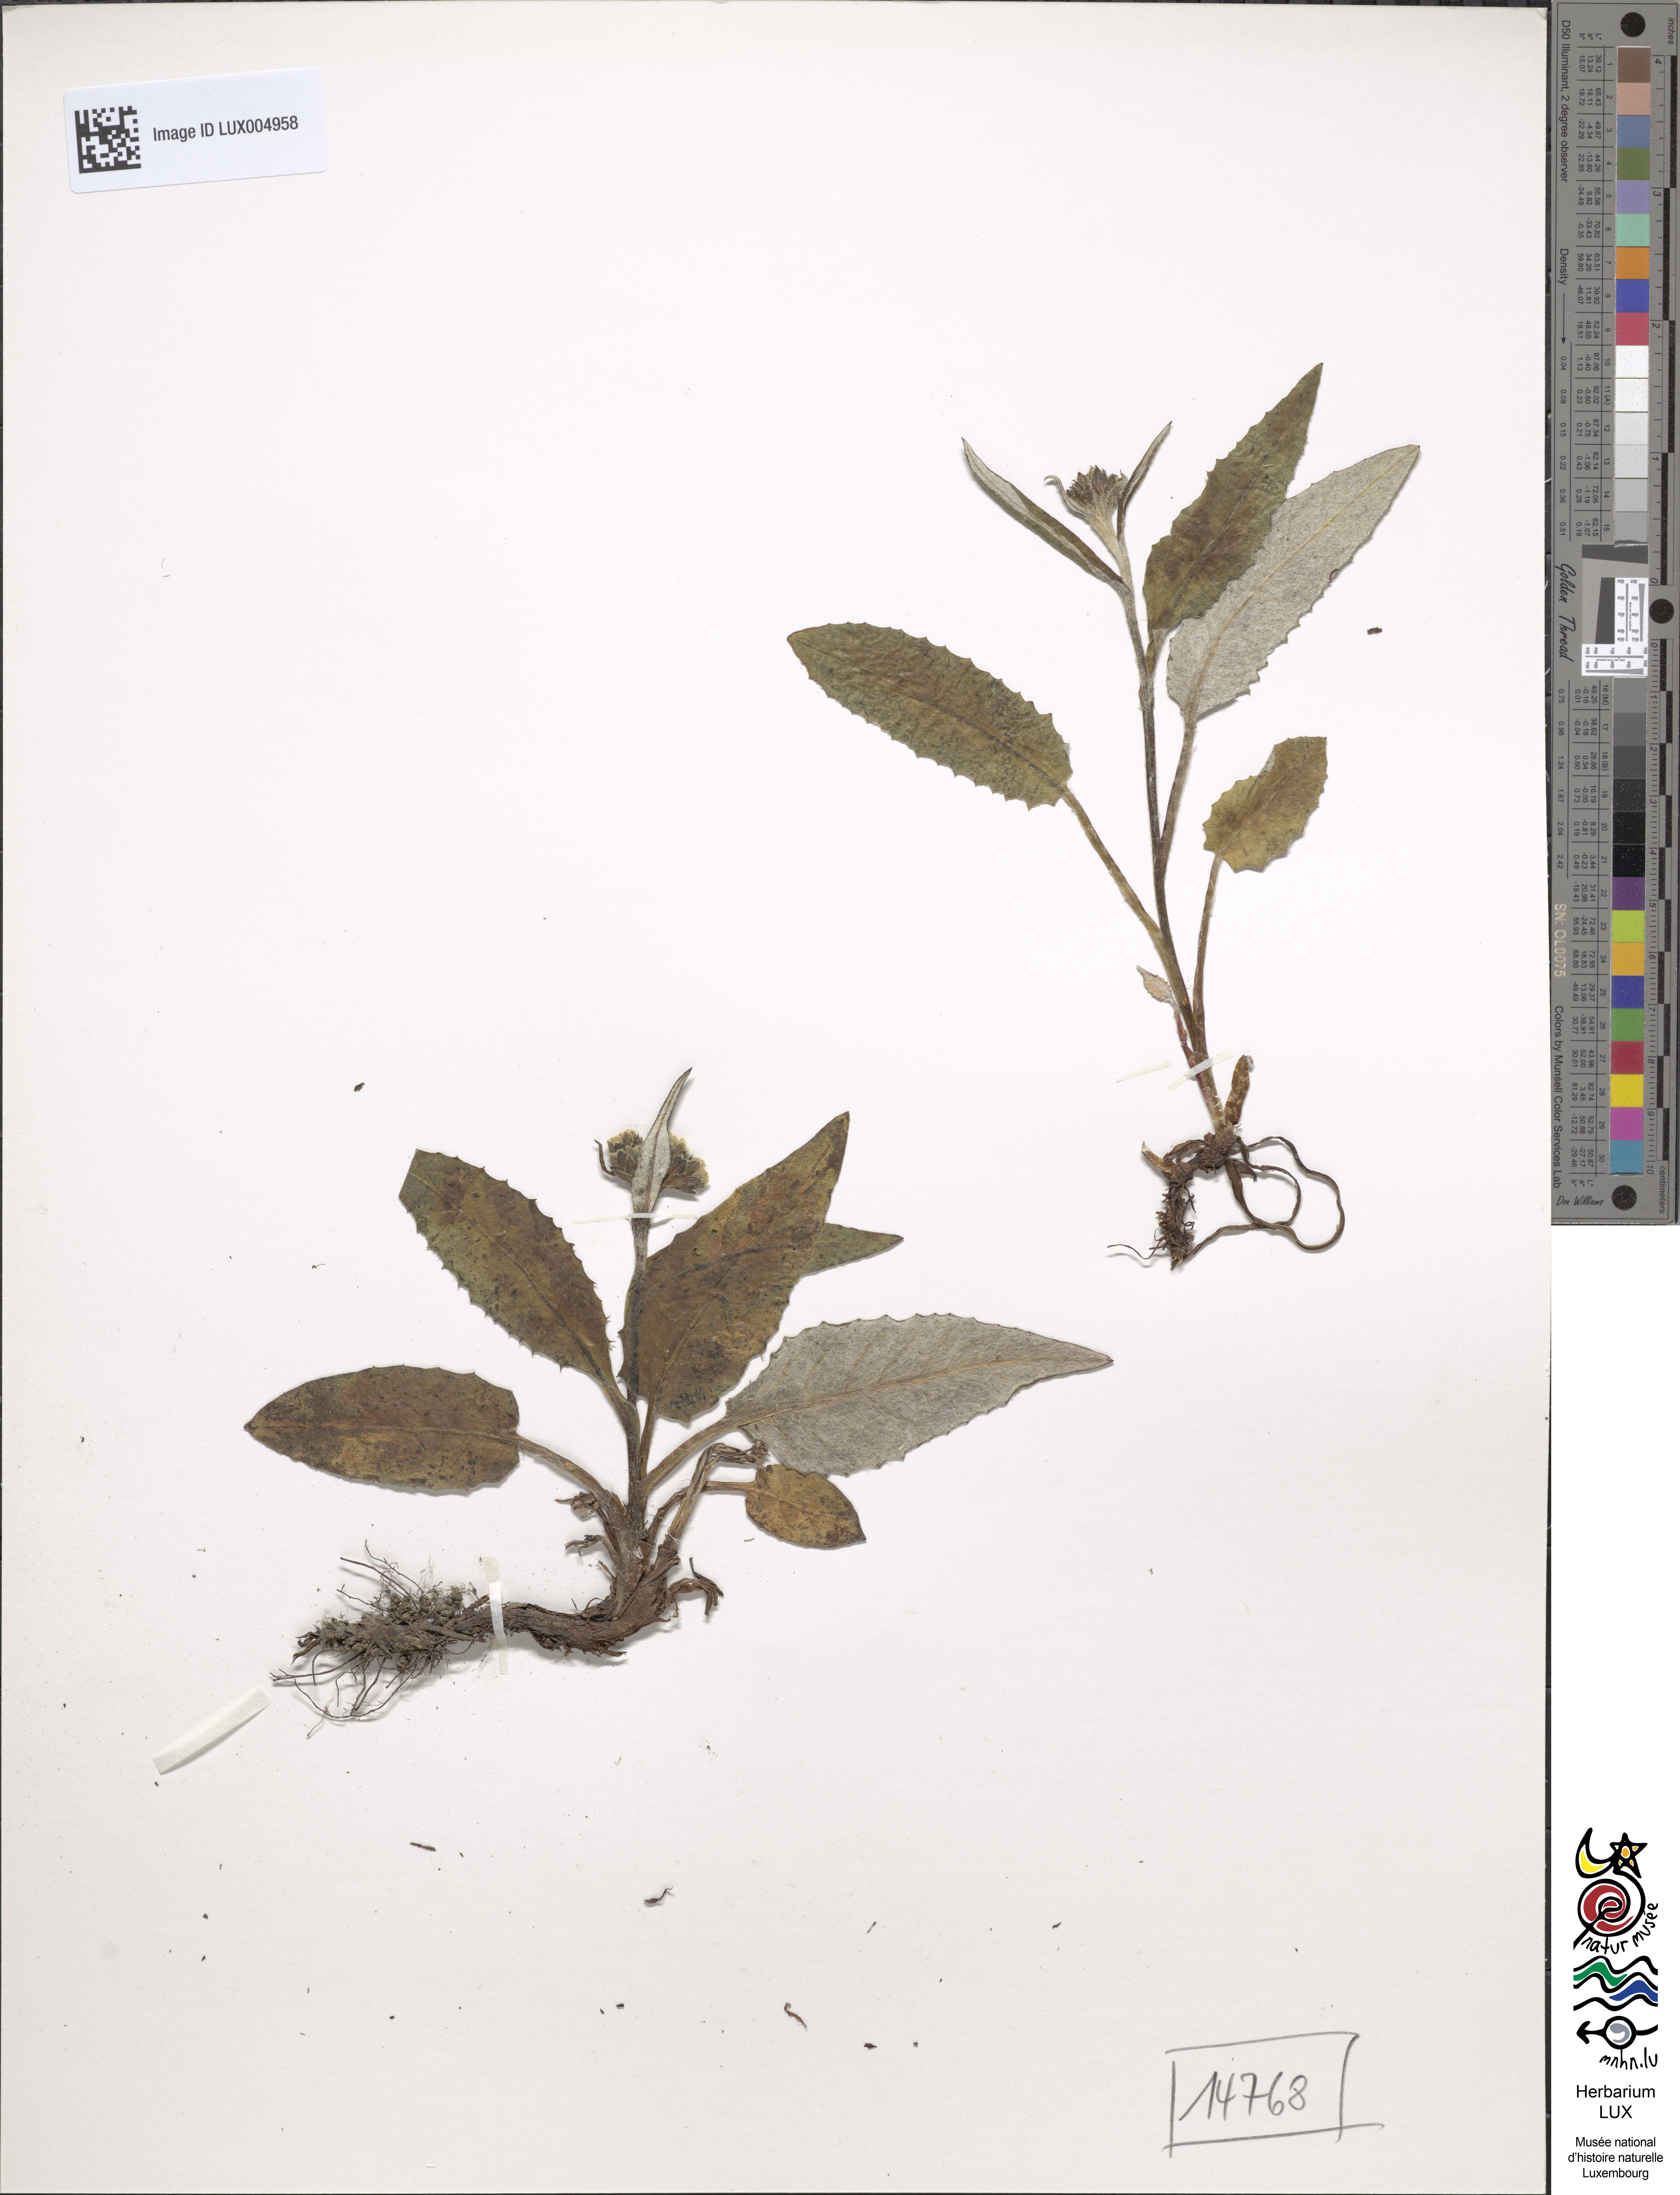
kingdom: Plantae
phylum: Tracheophyta
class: Magnoliopsida
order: Asterales
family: Asteraceae
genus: Saussurea
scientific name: Saussurea alpina
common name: Alpine saw-wort
